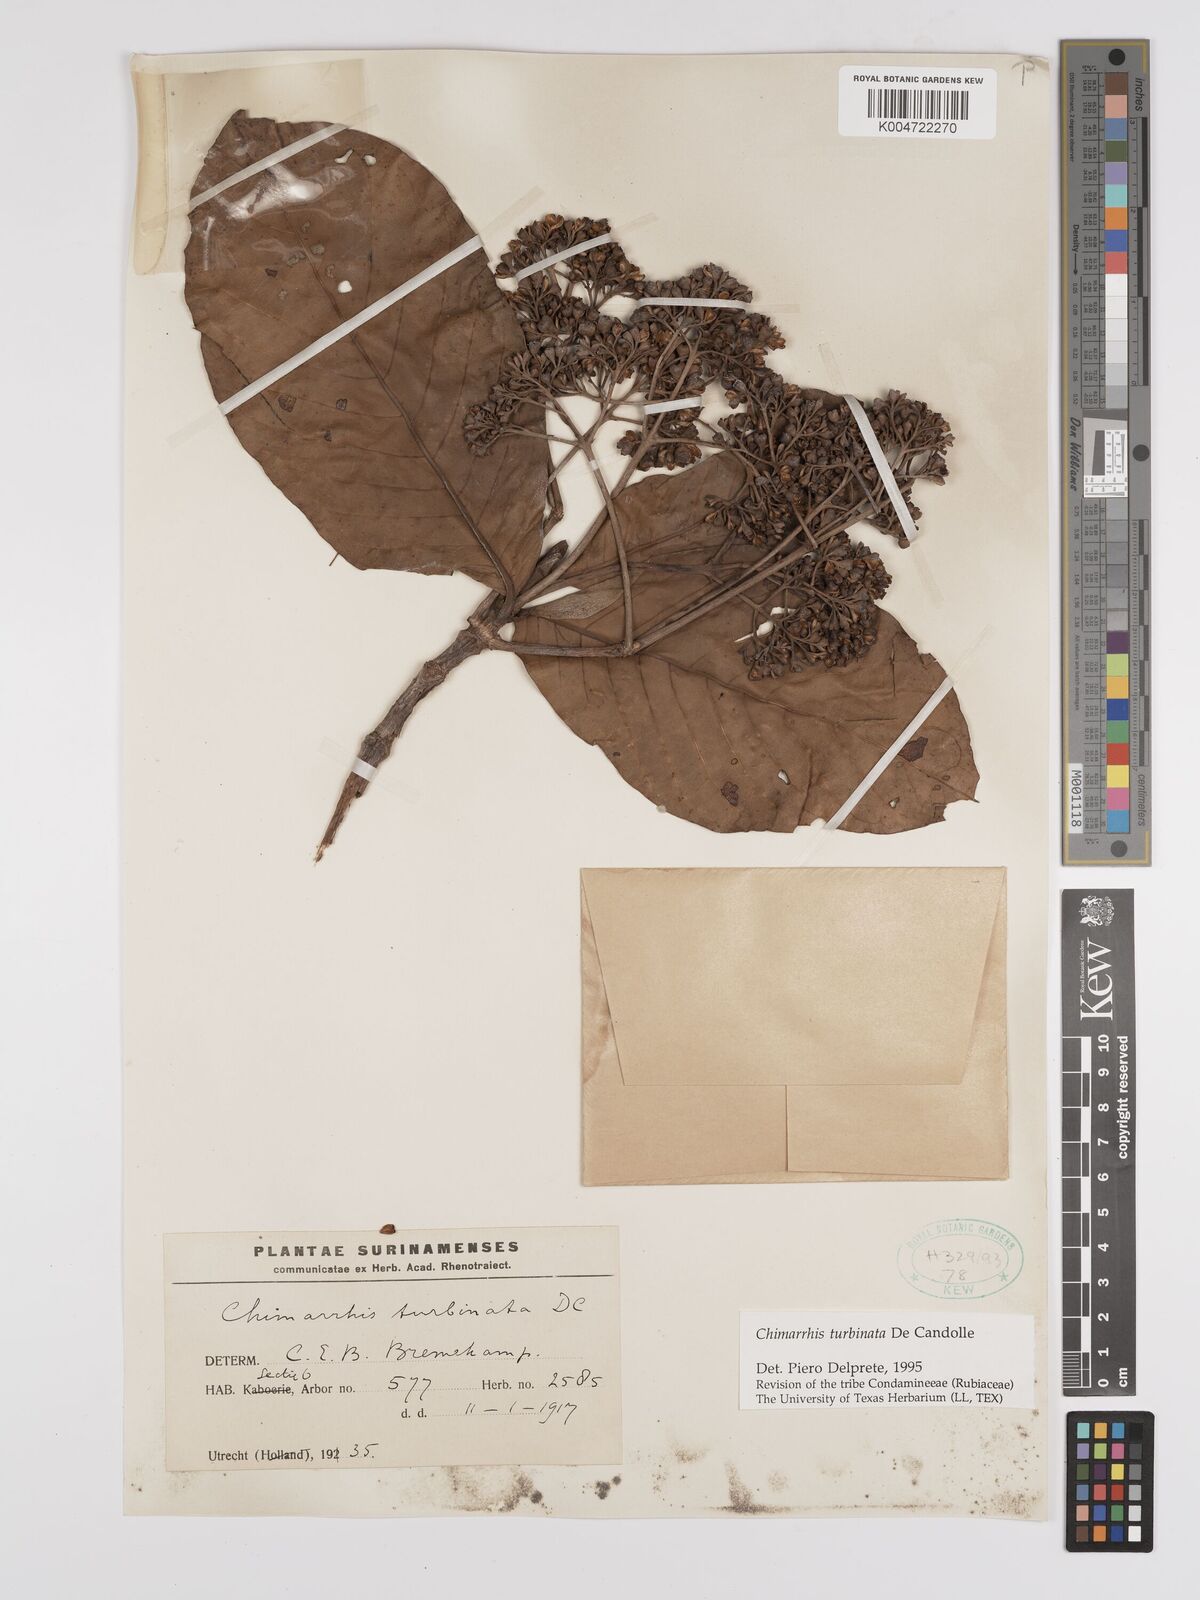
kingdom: Plantae
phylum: Tracheophyta
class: Magnoliopsida
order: Gentianales
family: Rubiaceae
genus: Chimarrhis
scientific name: Chimarrhis turbinata
